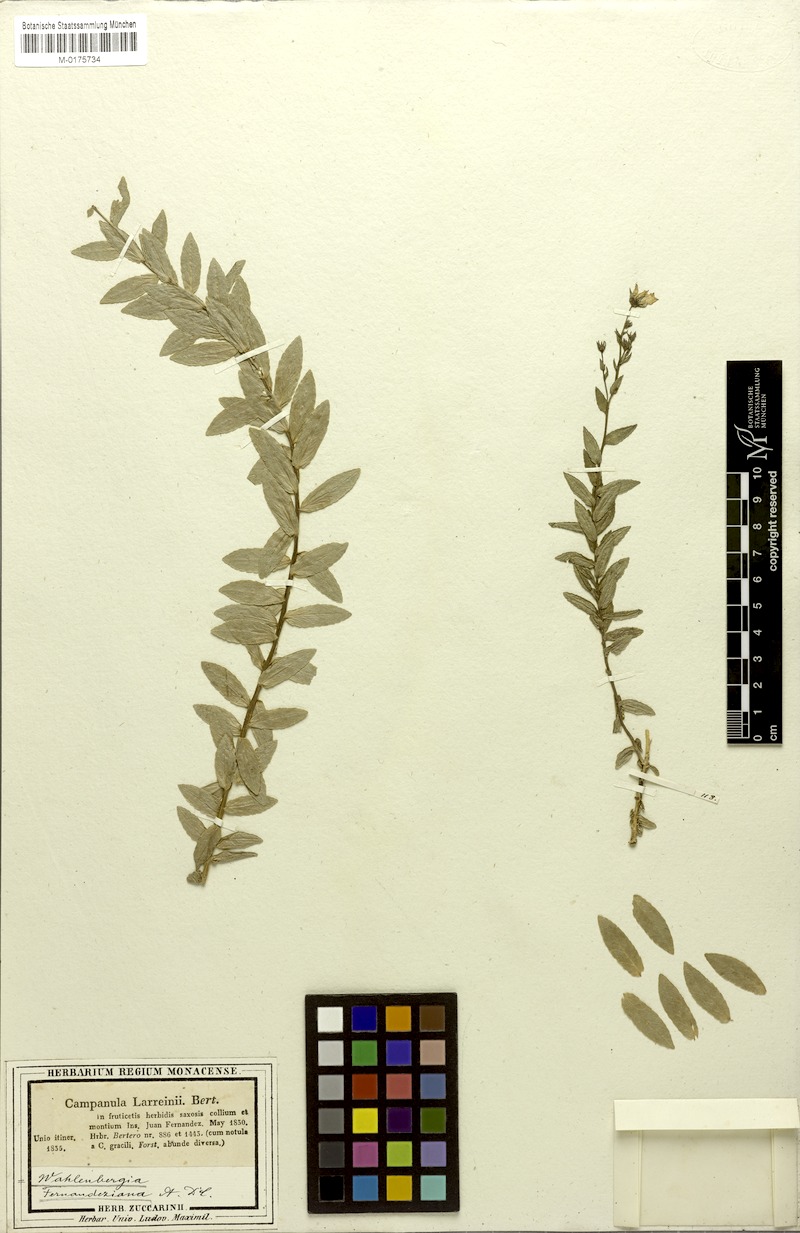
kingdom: Plantae
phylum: Tracheophyta
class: Magnoliopsida
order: Asterales
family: Campanulaceae
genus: Wahlenbergia
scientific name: Wahlenbergia fernandeziana
